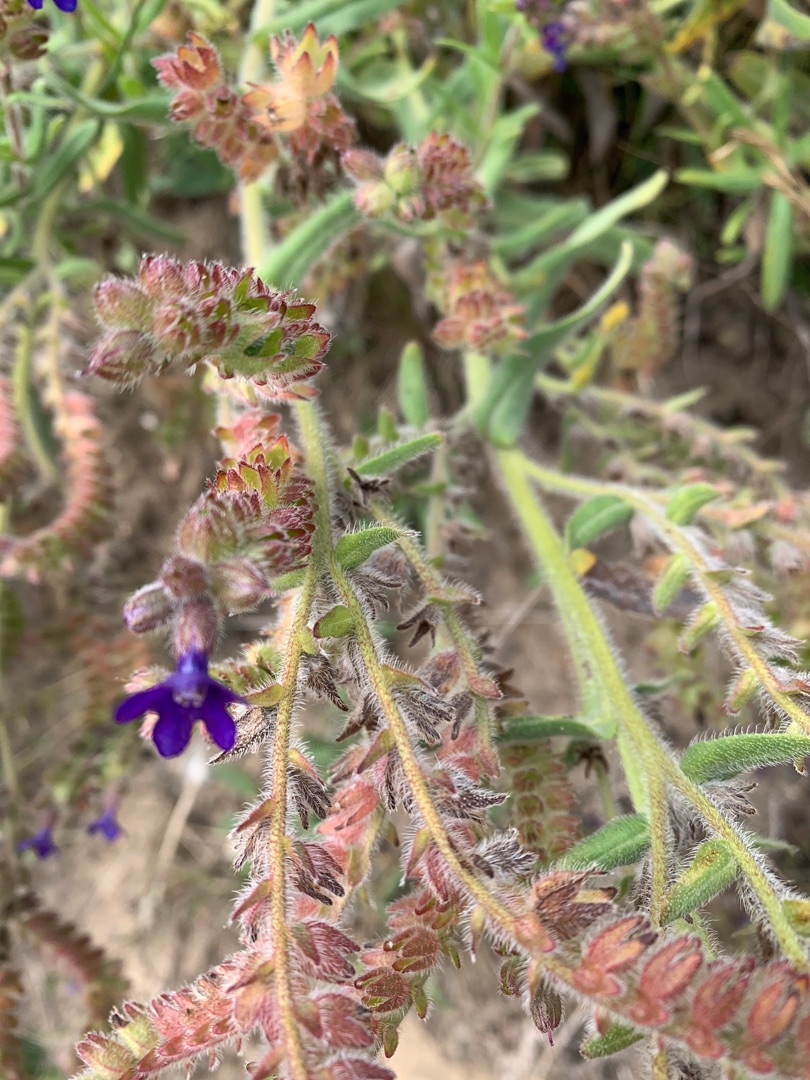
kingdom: Plantae
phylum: Tracheophyta
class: Magnoliopsida
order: Boraginales
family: Boraginaceae
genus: Anchusa
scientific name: Anchusa officinalis
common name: Læge-oksetunge
